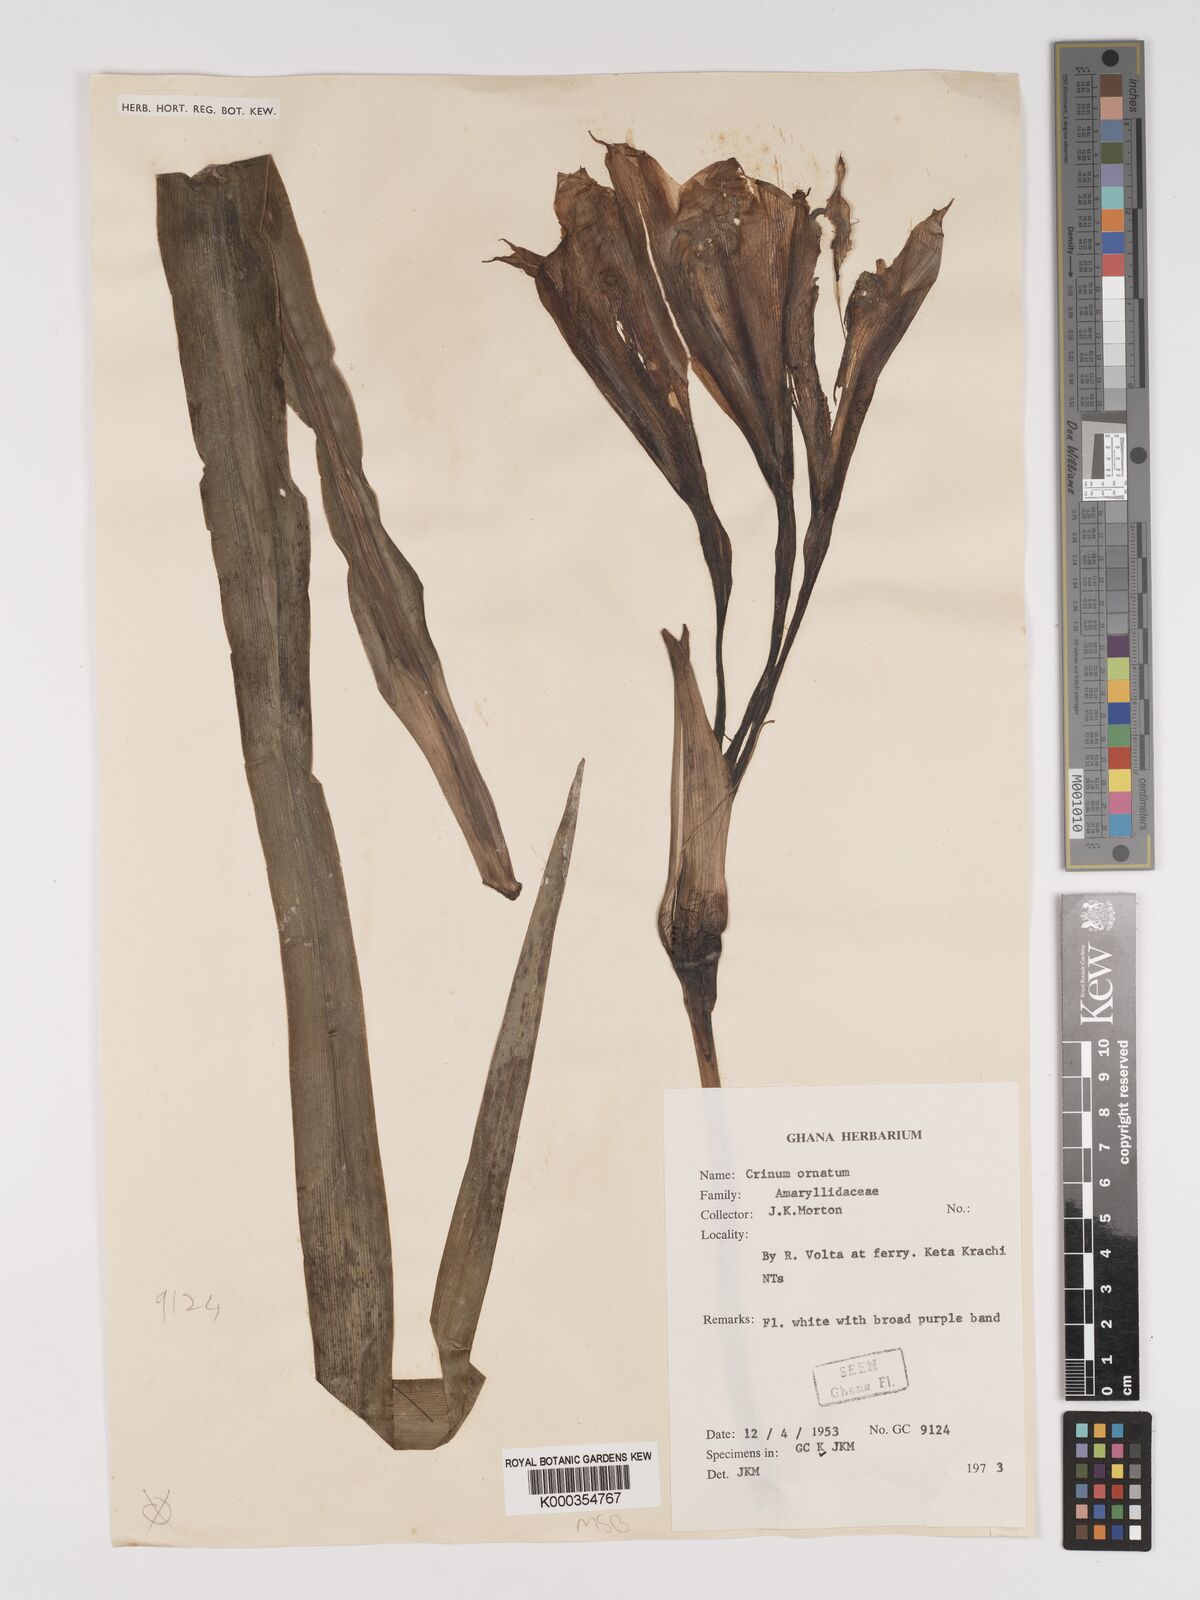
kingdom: Plantae
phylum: Tracheophyta
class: Liliopsida
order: Asparagales
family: Amaryllidaceae
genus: Crinum
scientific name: Crinum zeylanicum
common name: Ceylon swamplily
